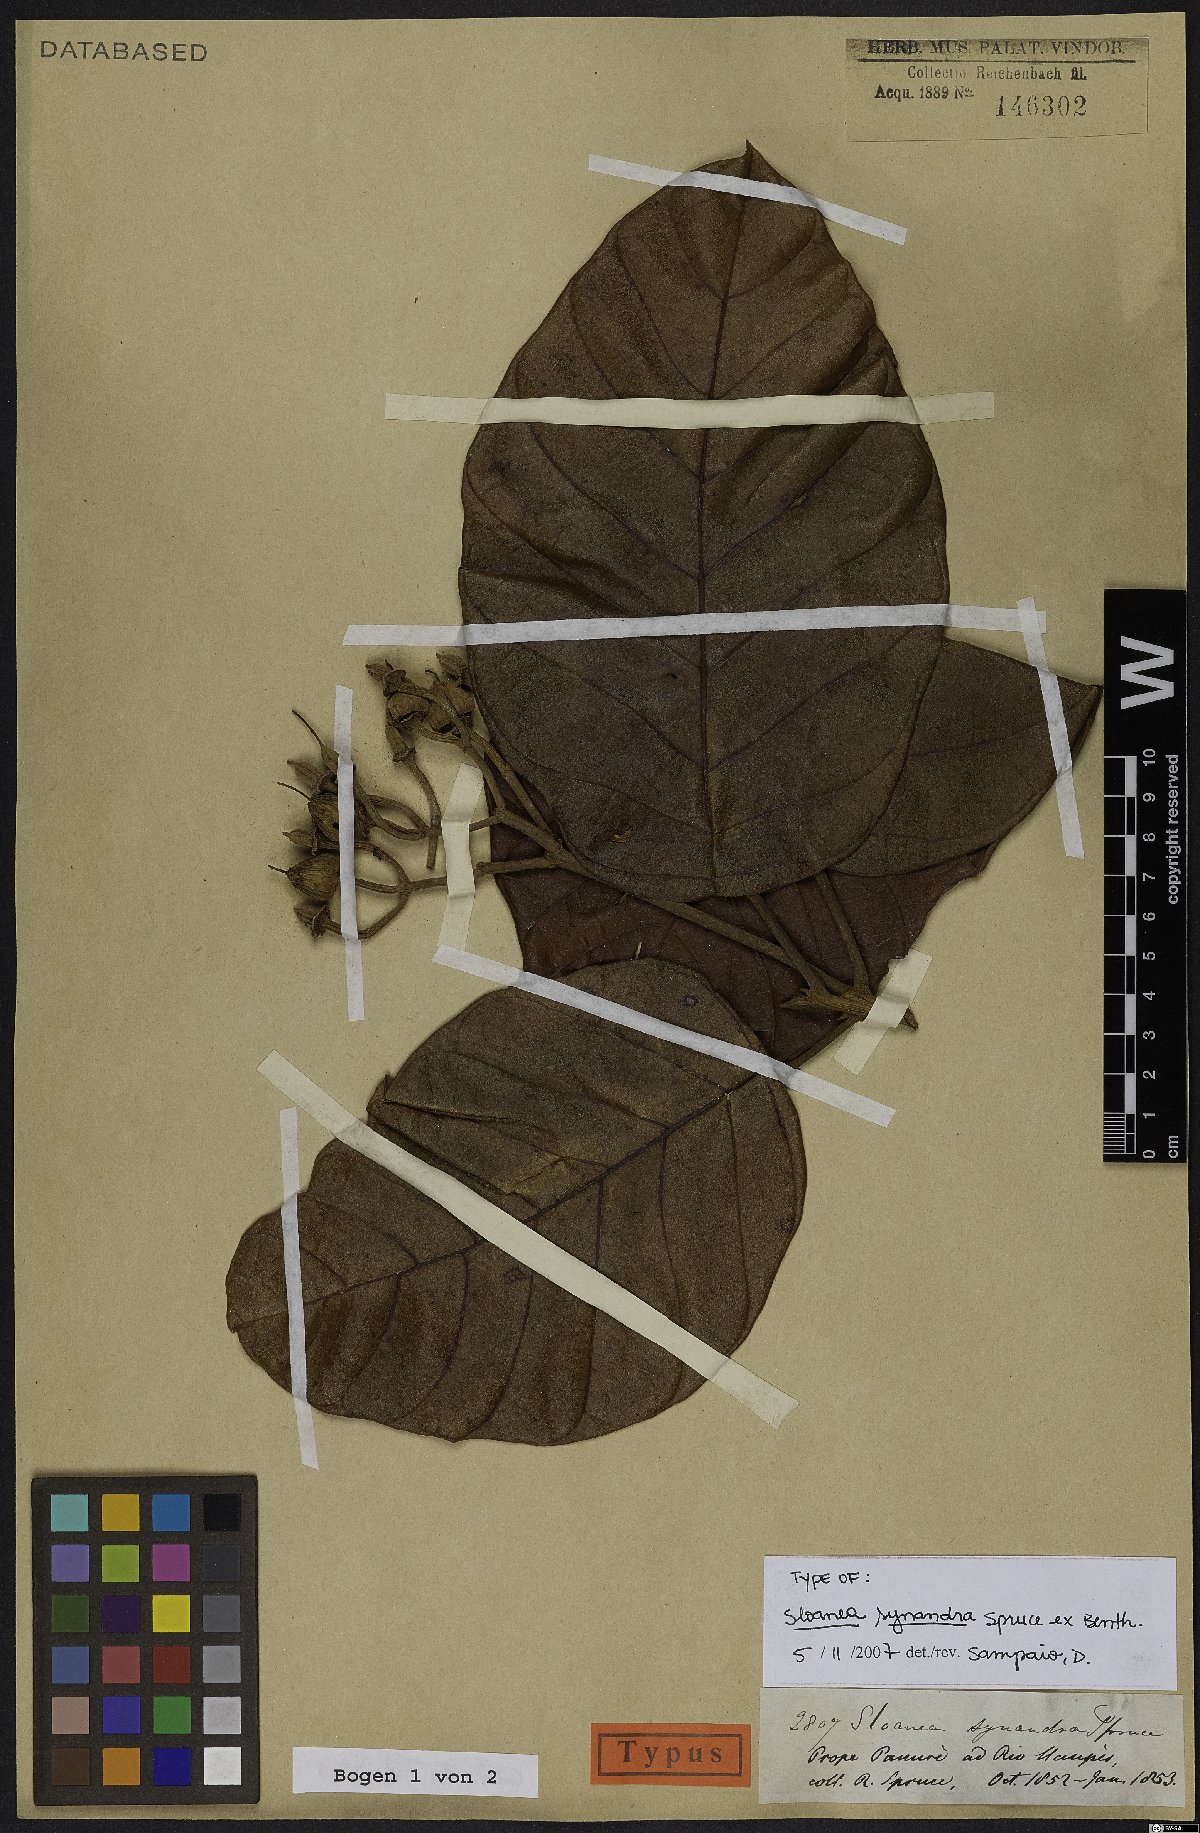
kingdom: Plantae
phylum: Tracheophyta
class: Magnoliopsida
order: Oxalidales
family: Elaeocarpaceae
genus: Sloanea
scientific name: Sloanea synandra
